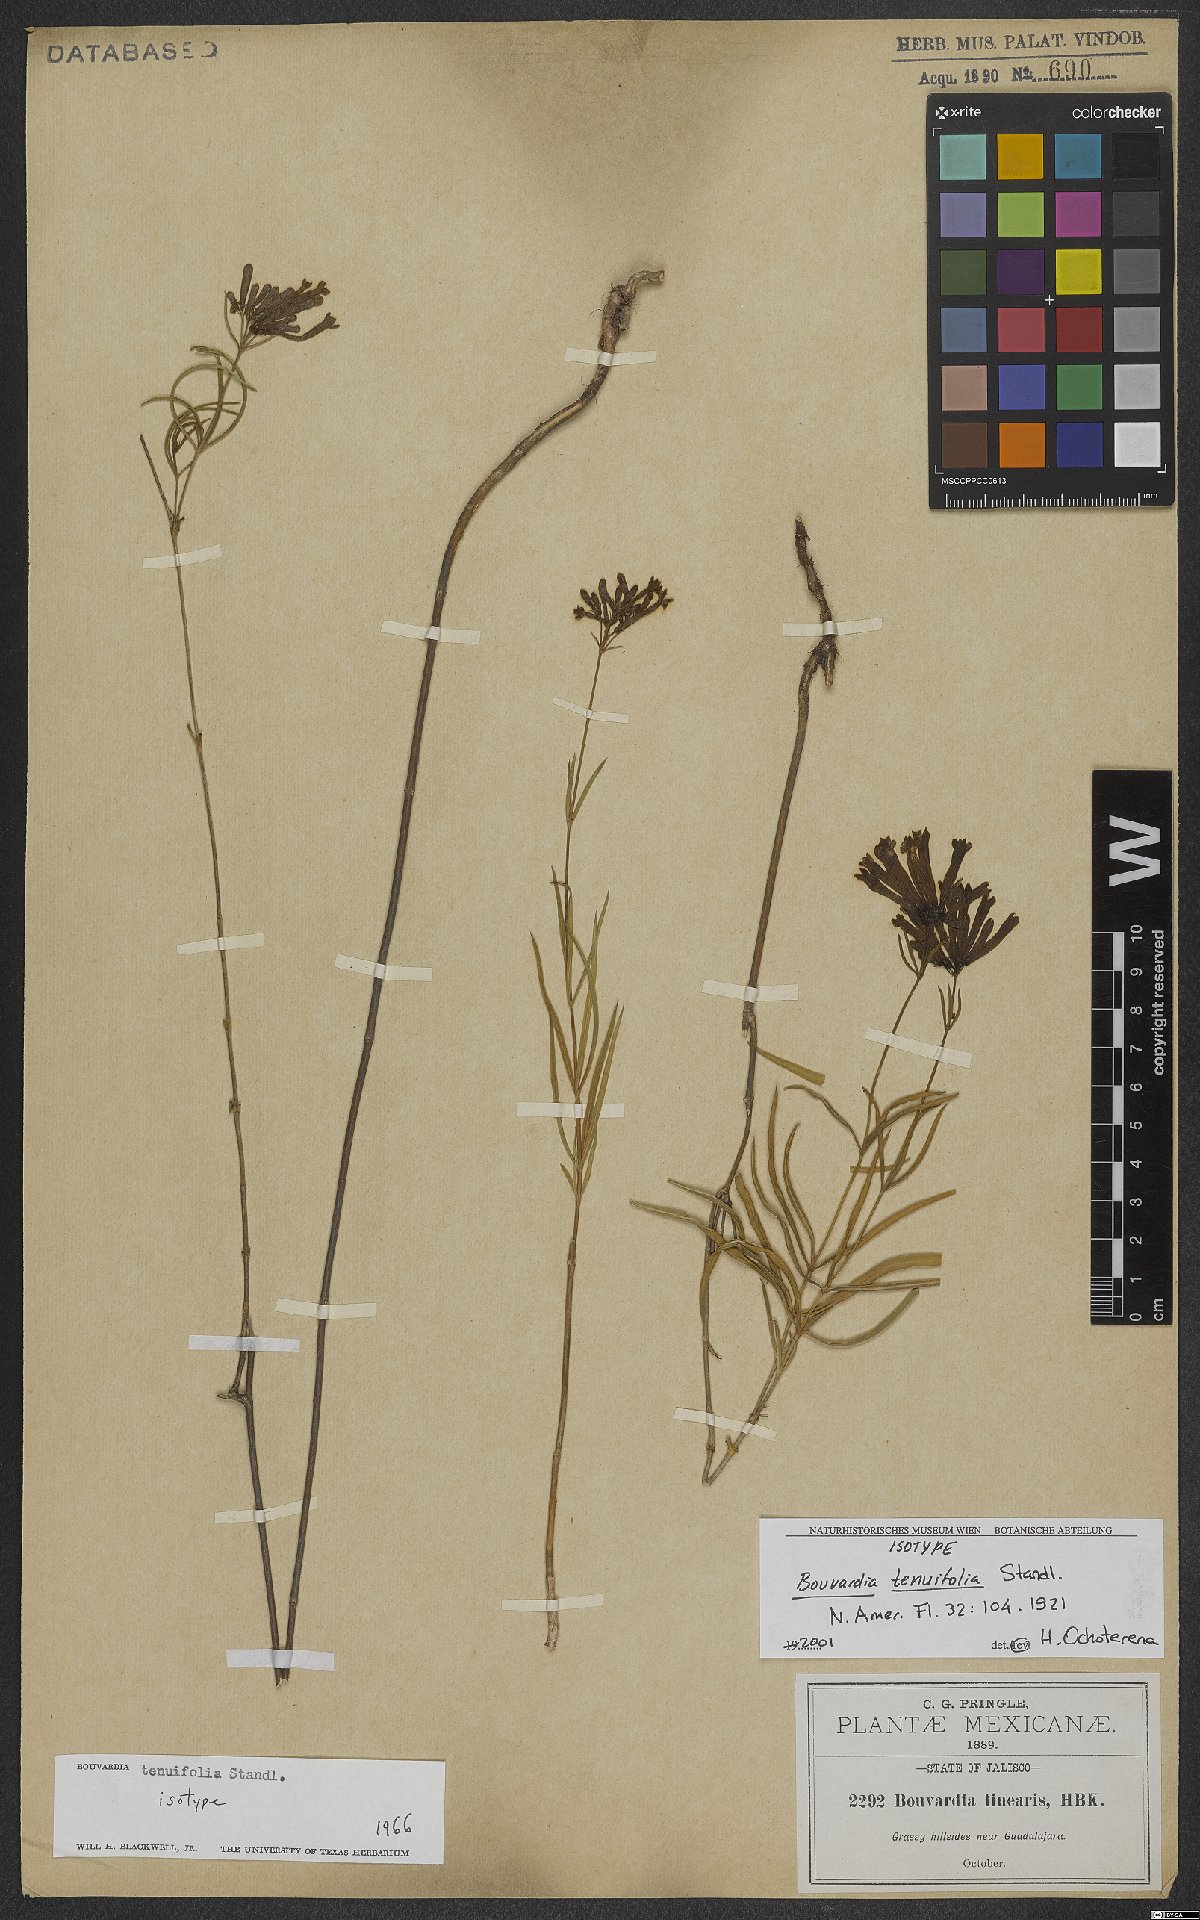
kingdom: Plantae
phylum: Tracheophyta
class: Magnoliopsida
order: Gentianales
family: Rubiaceae
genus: Bouvardia
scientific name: Bouvardia tenuifolia
